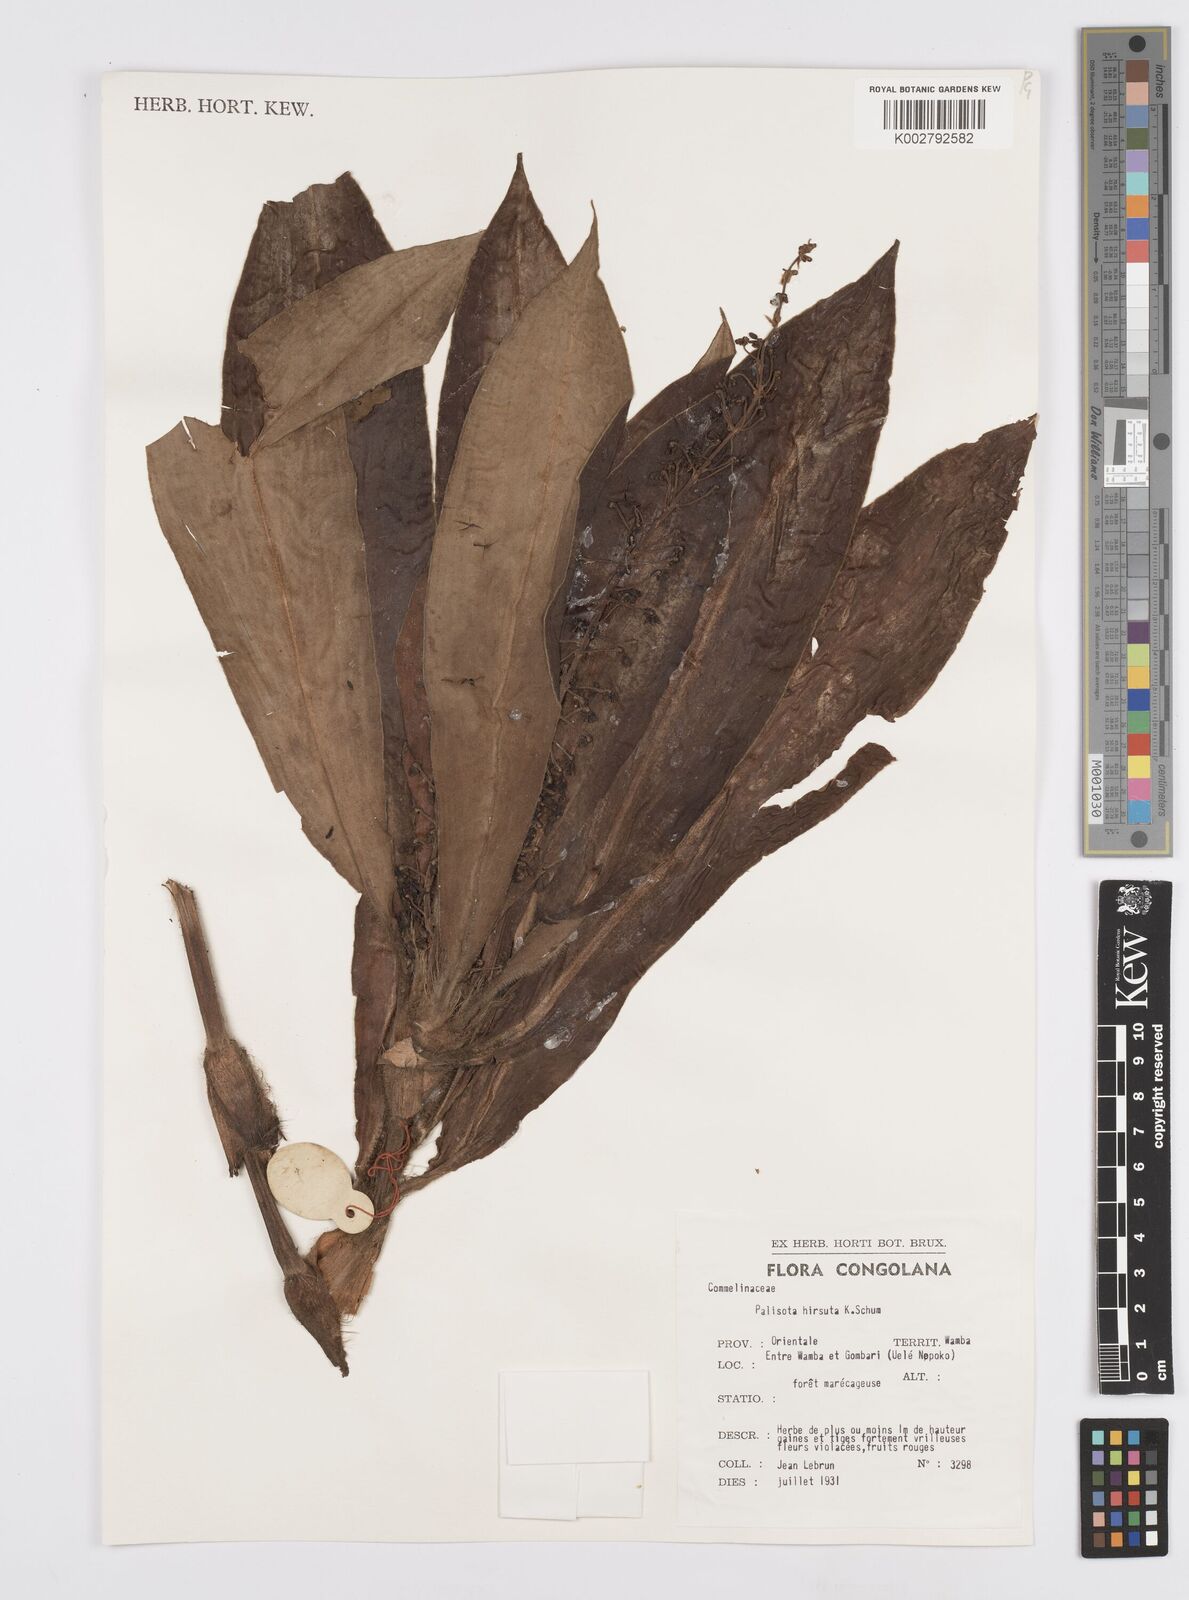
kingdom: Plantae
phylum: Tracheophyta
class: Liliopsida
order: Commelinales
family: Commelinaceae
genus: Palisota
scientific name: Palisota hirsuta
